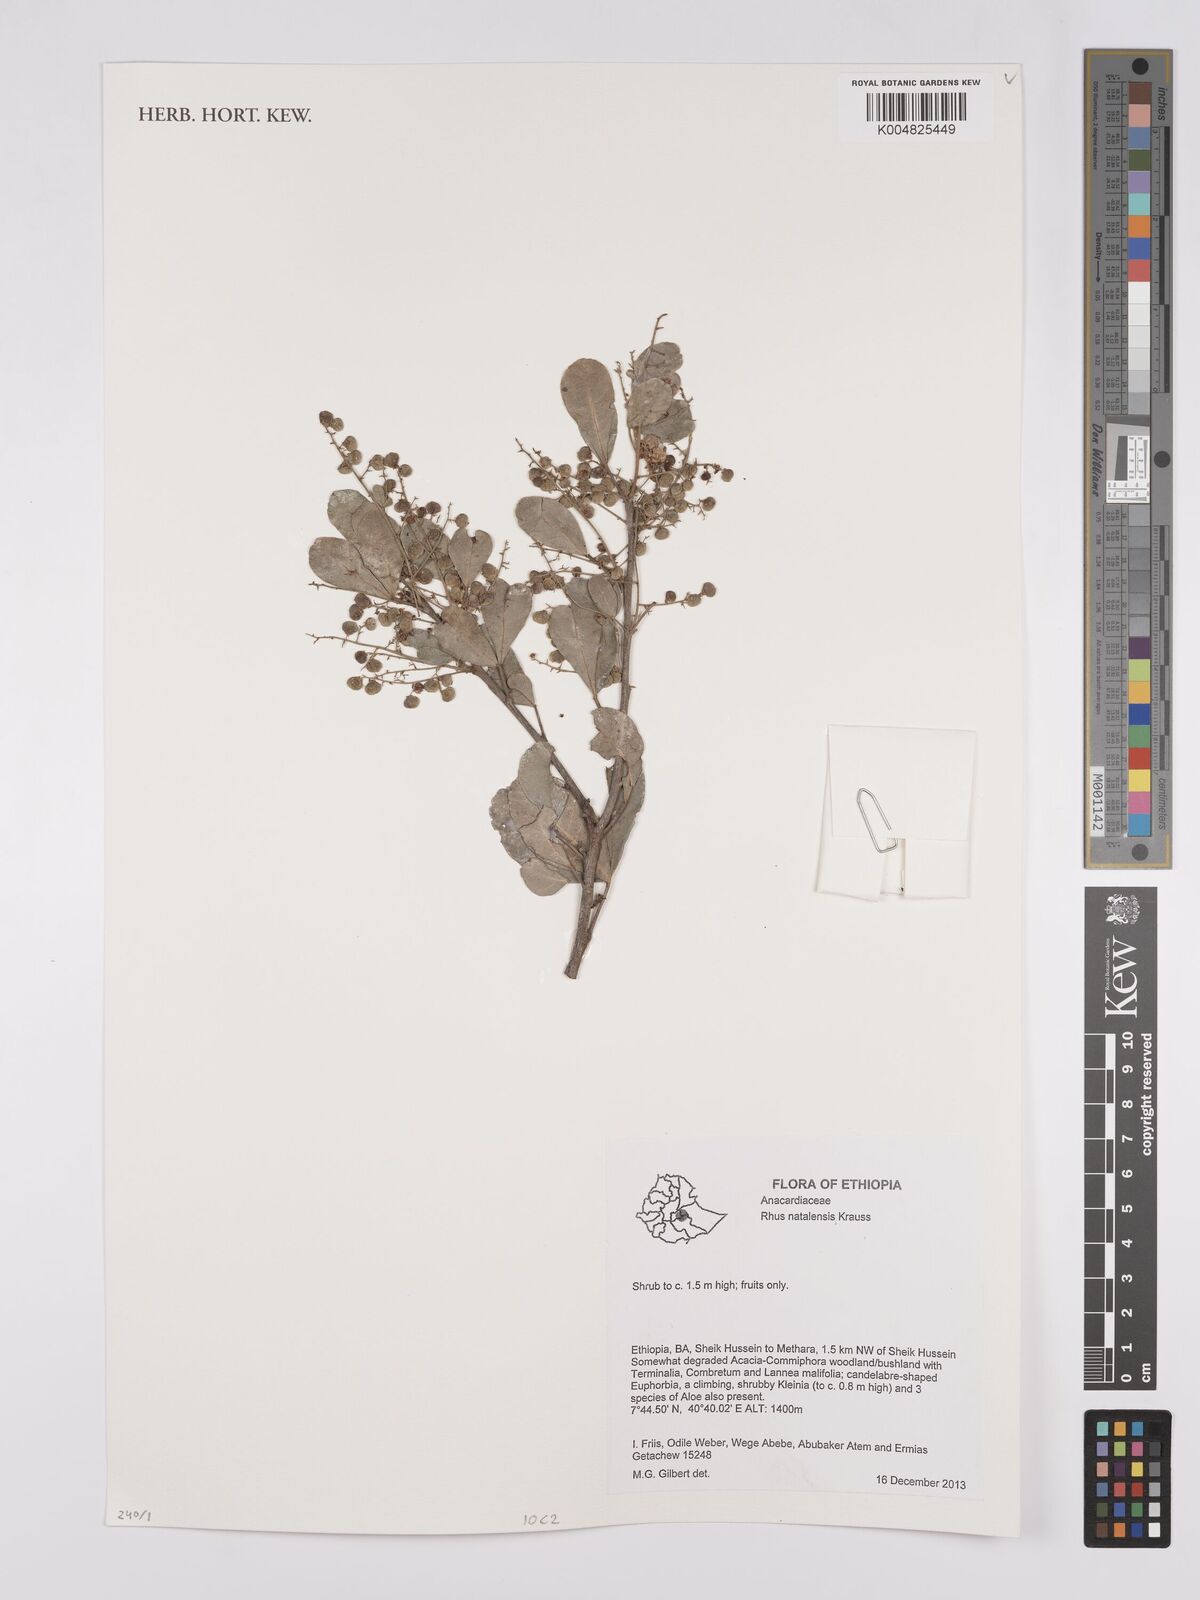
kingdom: Plantae
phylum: Tracheophyta
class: Magnoliopsida
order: Sapindales
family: Anacardiaceae
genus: Searsia
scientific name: Searsia natalensis
